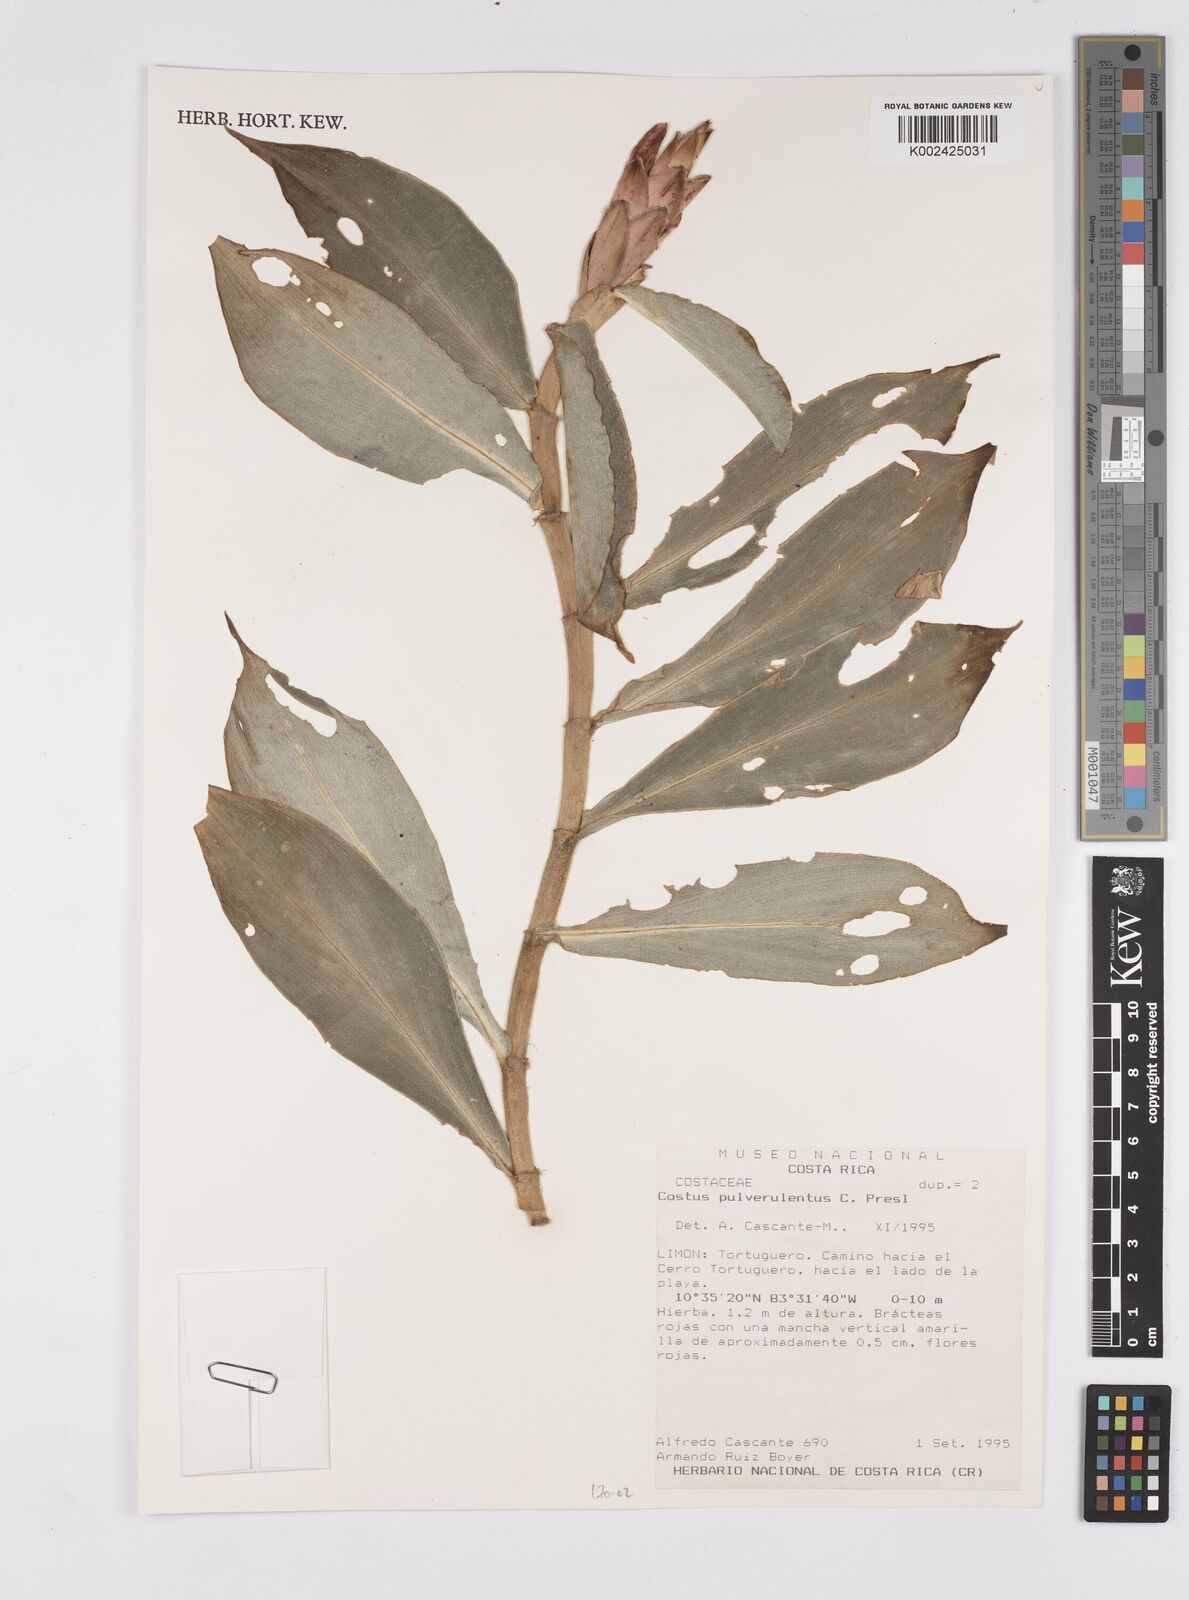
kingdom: Plantae
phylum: Tracheophyta
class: Liliopsida
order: Zingiberales
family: Costaceae
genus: Costus
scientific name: Costus pulverulentus
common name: Spiral ginger
